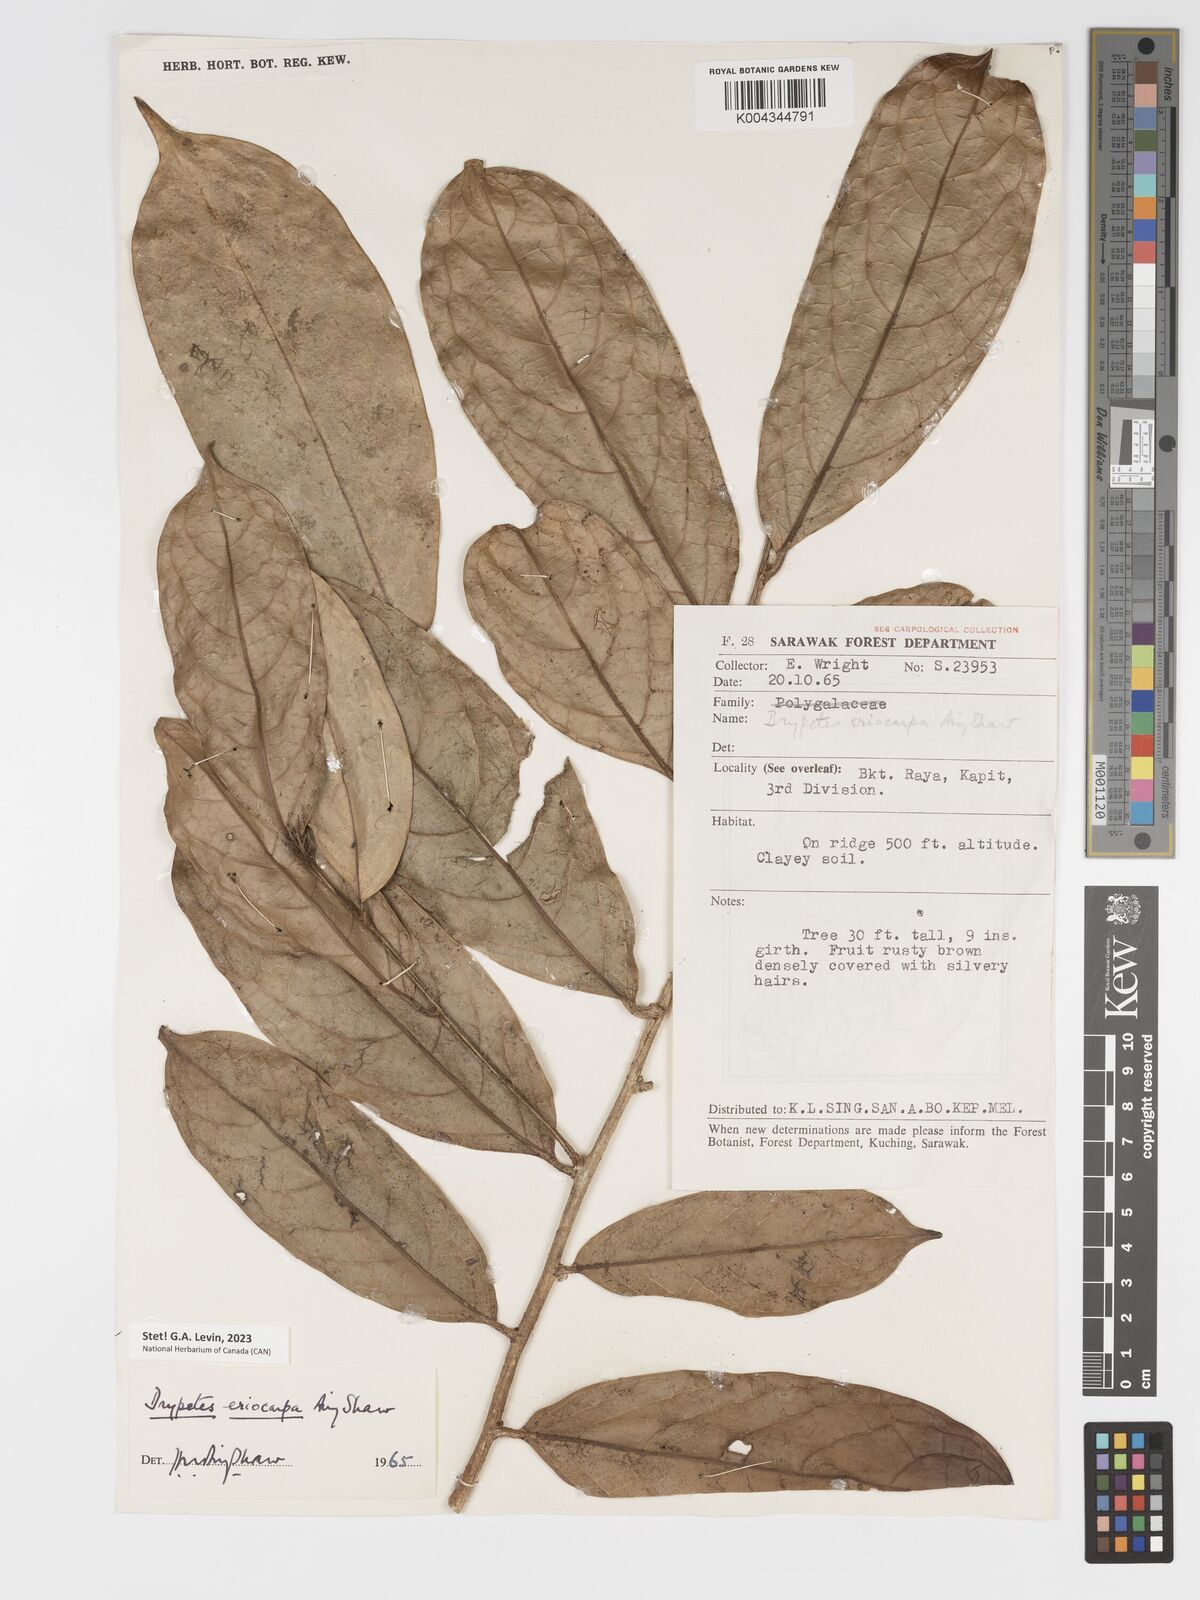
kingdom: Plantae
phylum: Tracheophyta
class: Magnoliopsida
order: Malpighiales
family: Putranjivaceae
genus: Drypetes
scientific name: Drypetes eriocarpa
